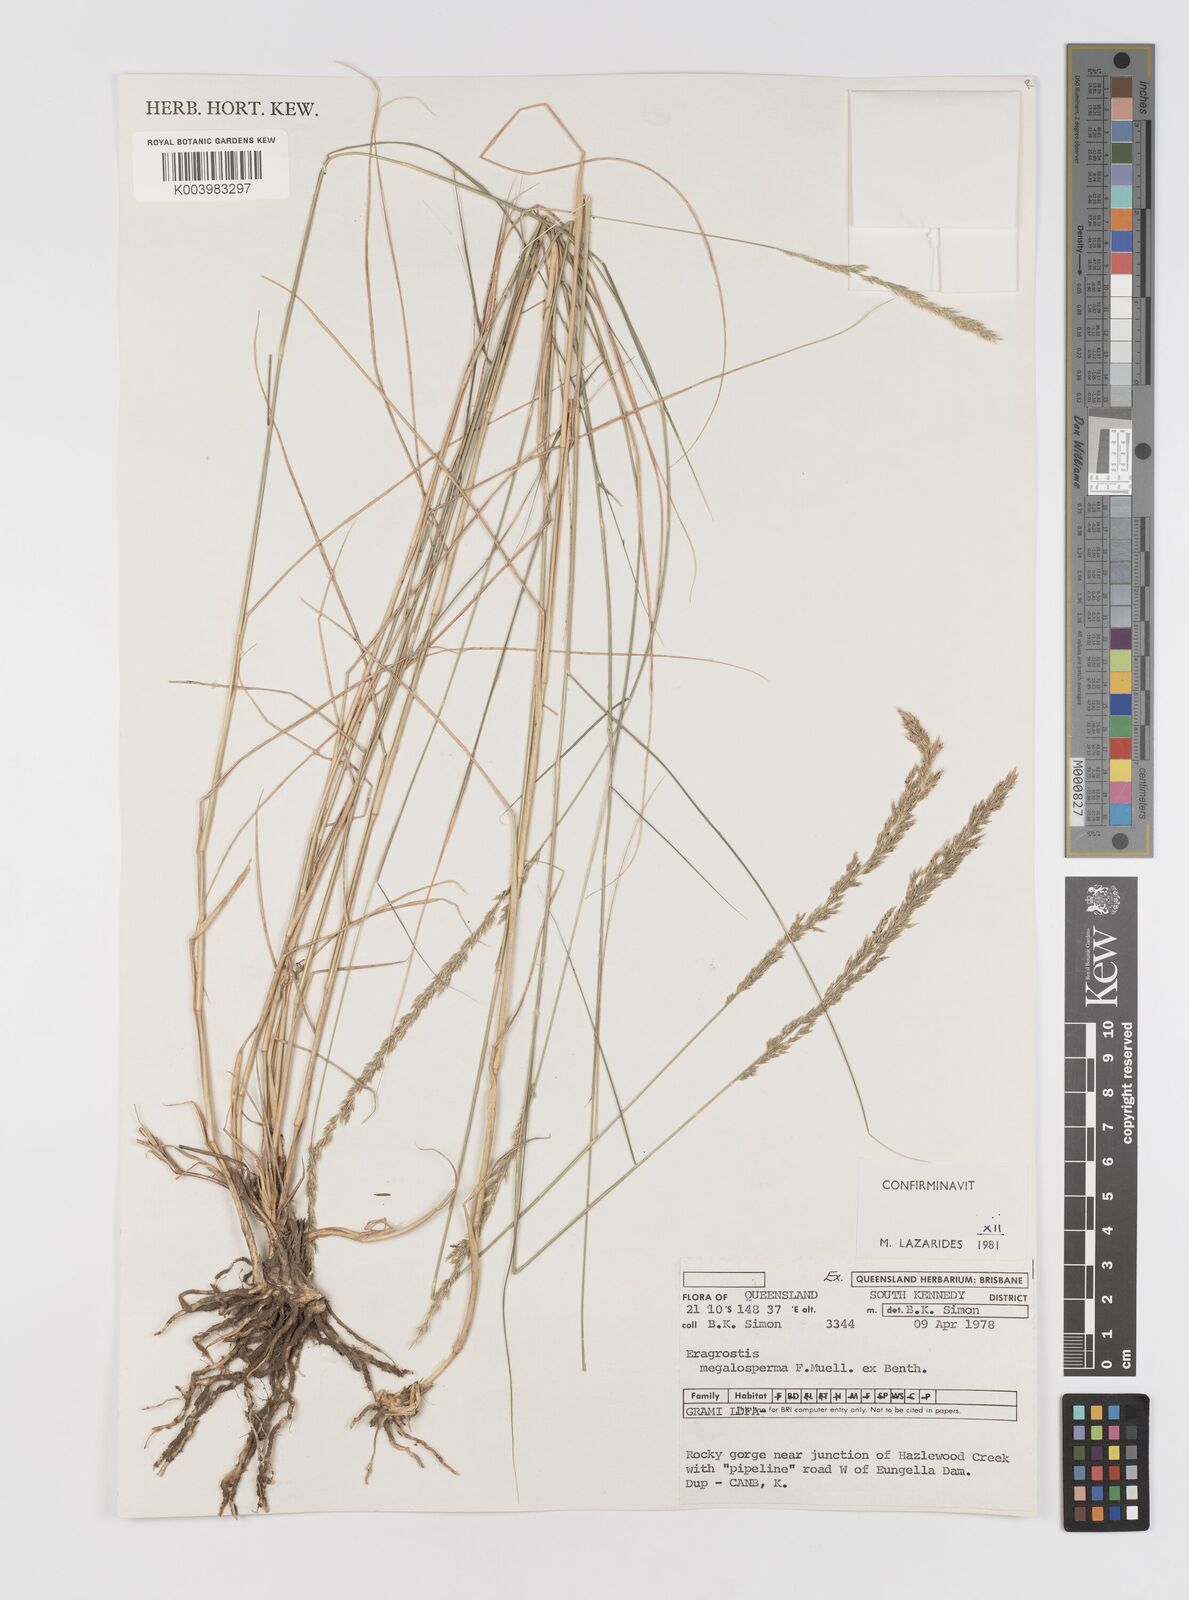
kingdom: Plantae
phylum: Tracheophyta
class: Liliopsida
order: Poales
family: Poaceae
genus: Sporobolus
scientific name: Sporobolus megalospermus
